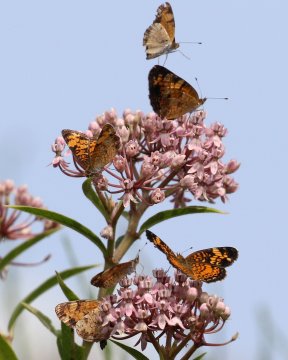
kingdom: Animalia
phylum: Arthropoda
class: Insecta
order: Lepidoptera
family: Nymphalidae
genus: Phyciodes
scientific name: Phyciodes tharos
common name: Pearl Crescent
